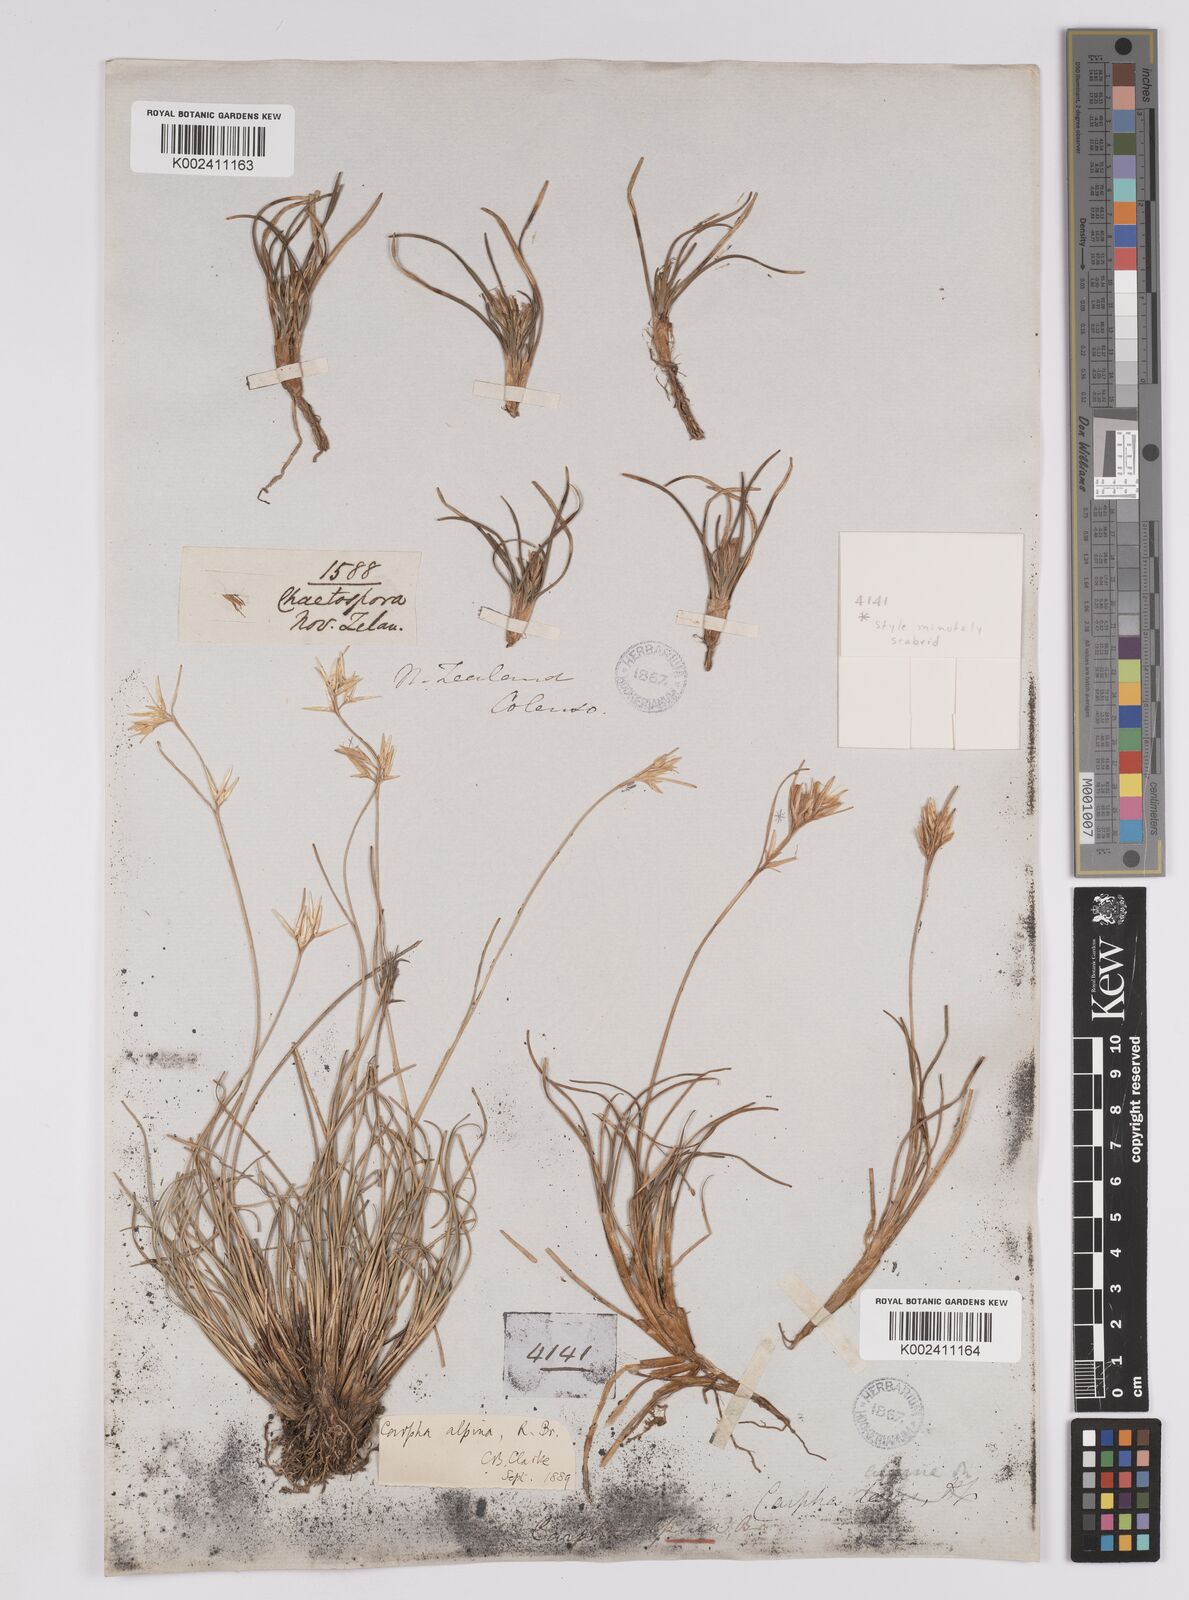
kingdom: Plantae
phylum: Tracheophyta
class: Liliopsida
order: Poales
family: Cyperaceae
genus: Carpha
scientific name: Carpha alpina
